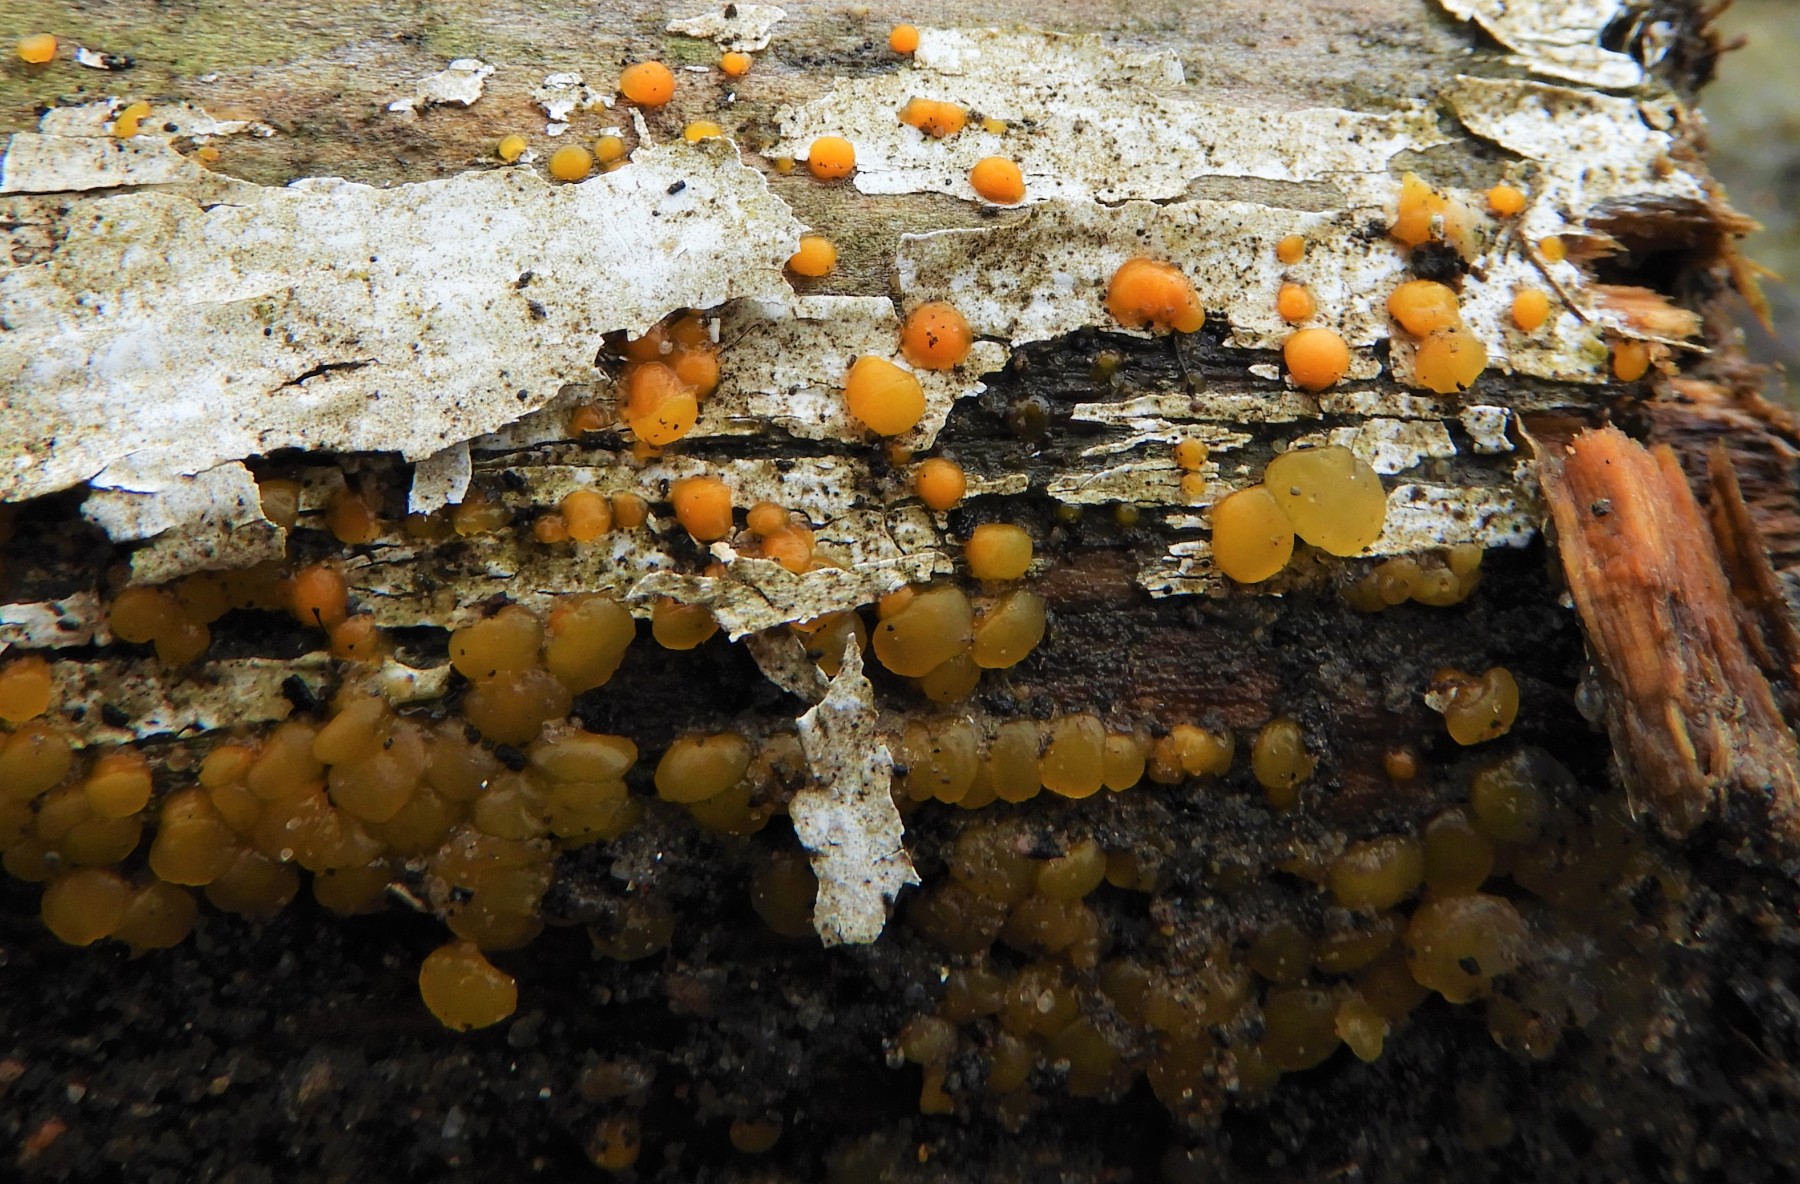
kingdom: Fungi
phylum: Basidiomycota
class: Dacrymycetes
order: Dacrymycetales
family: Dacrymycetaceae
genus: Dacrymyces
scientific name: Dacrymyces stillatus
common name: almindelig tåresvamp
